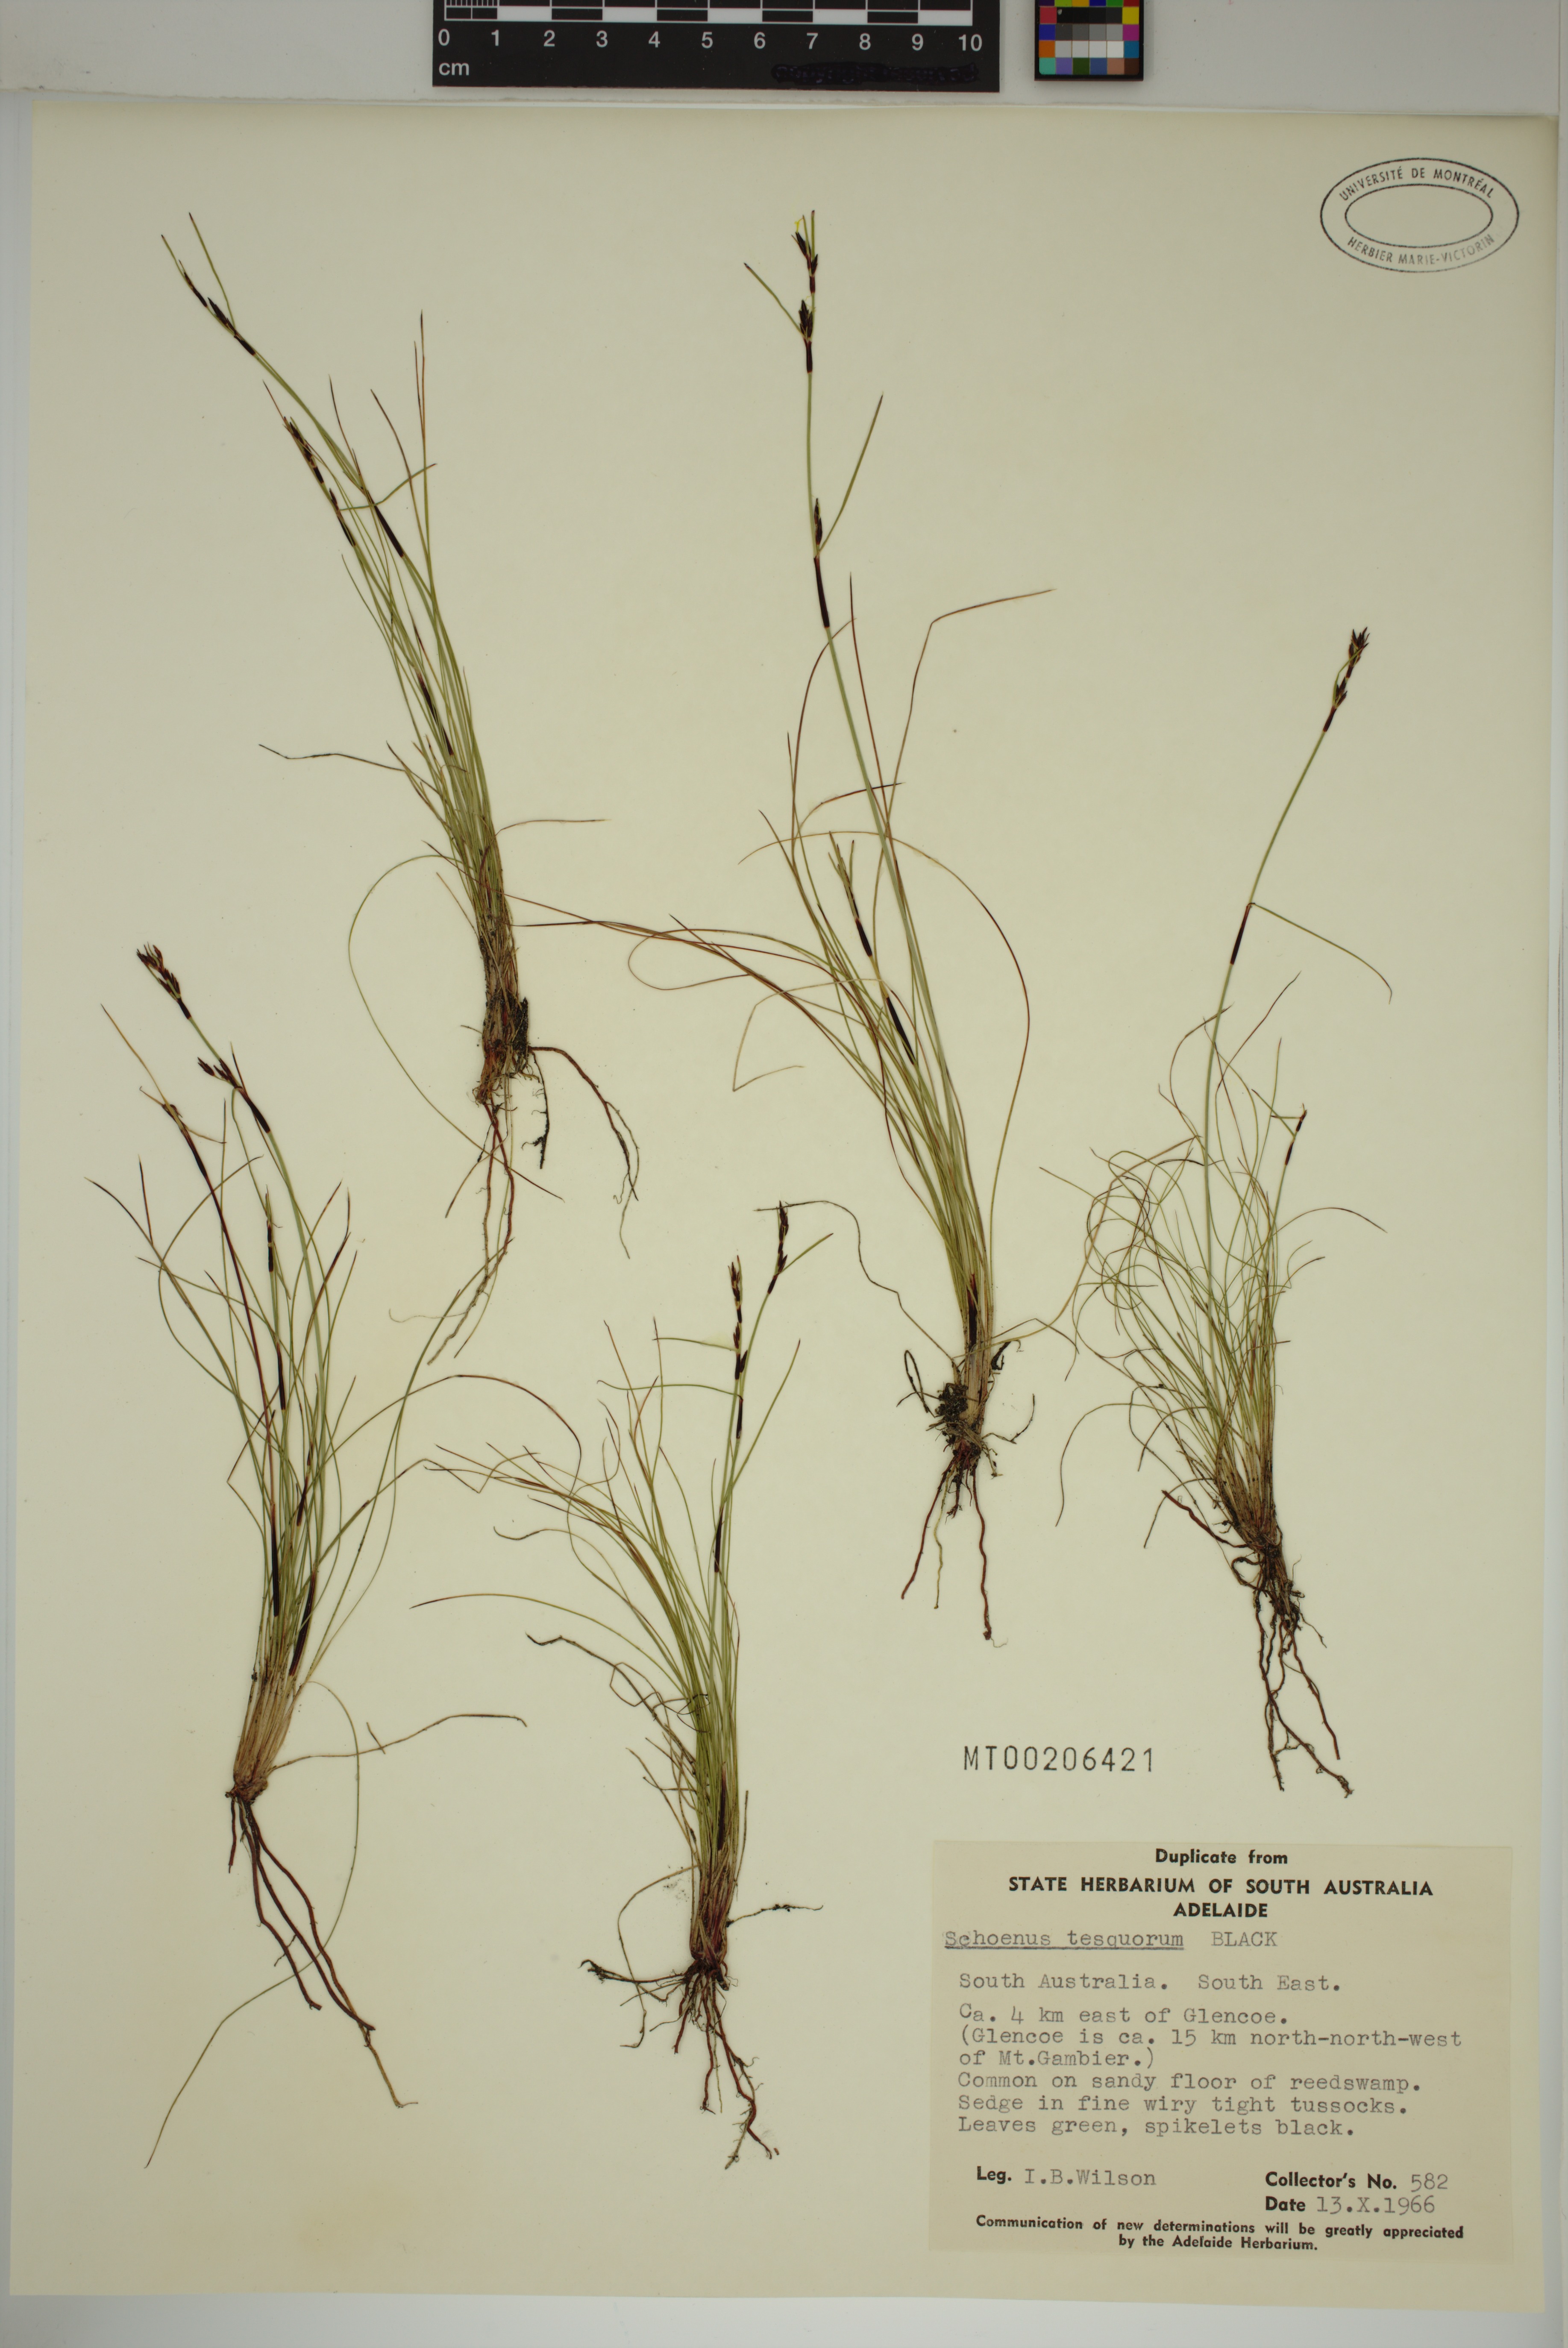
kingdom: Plantae
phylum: Tracheophyta
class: Liliopsida
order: Poales
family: Cyperaceae
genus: Schoenus
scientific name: Schoenus tesquorum
